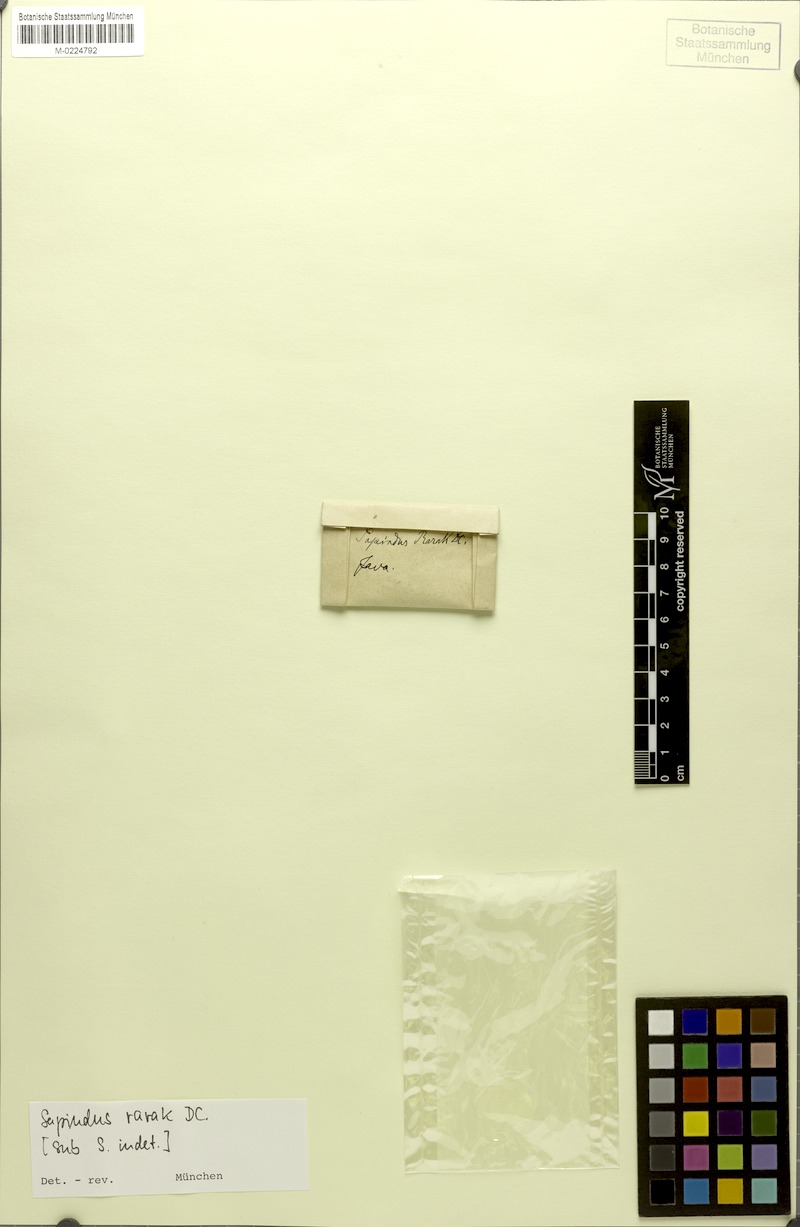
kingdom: Plantae
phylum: Tracheophyta
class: Magnoliopsida
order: Sapindales
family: Sapindaceae
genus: Sapindus
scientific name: Sapindus rarak
